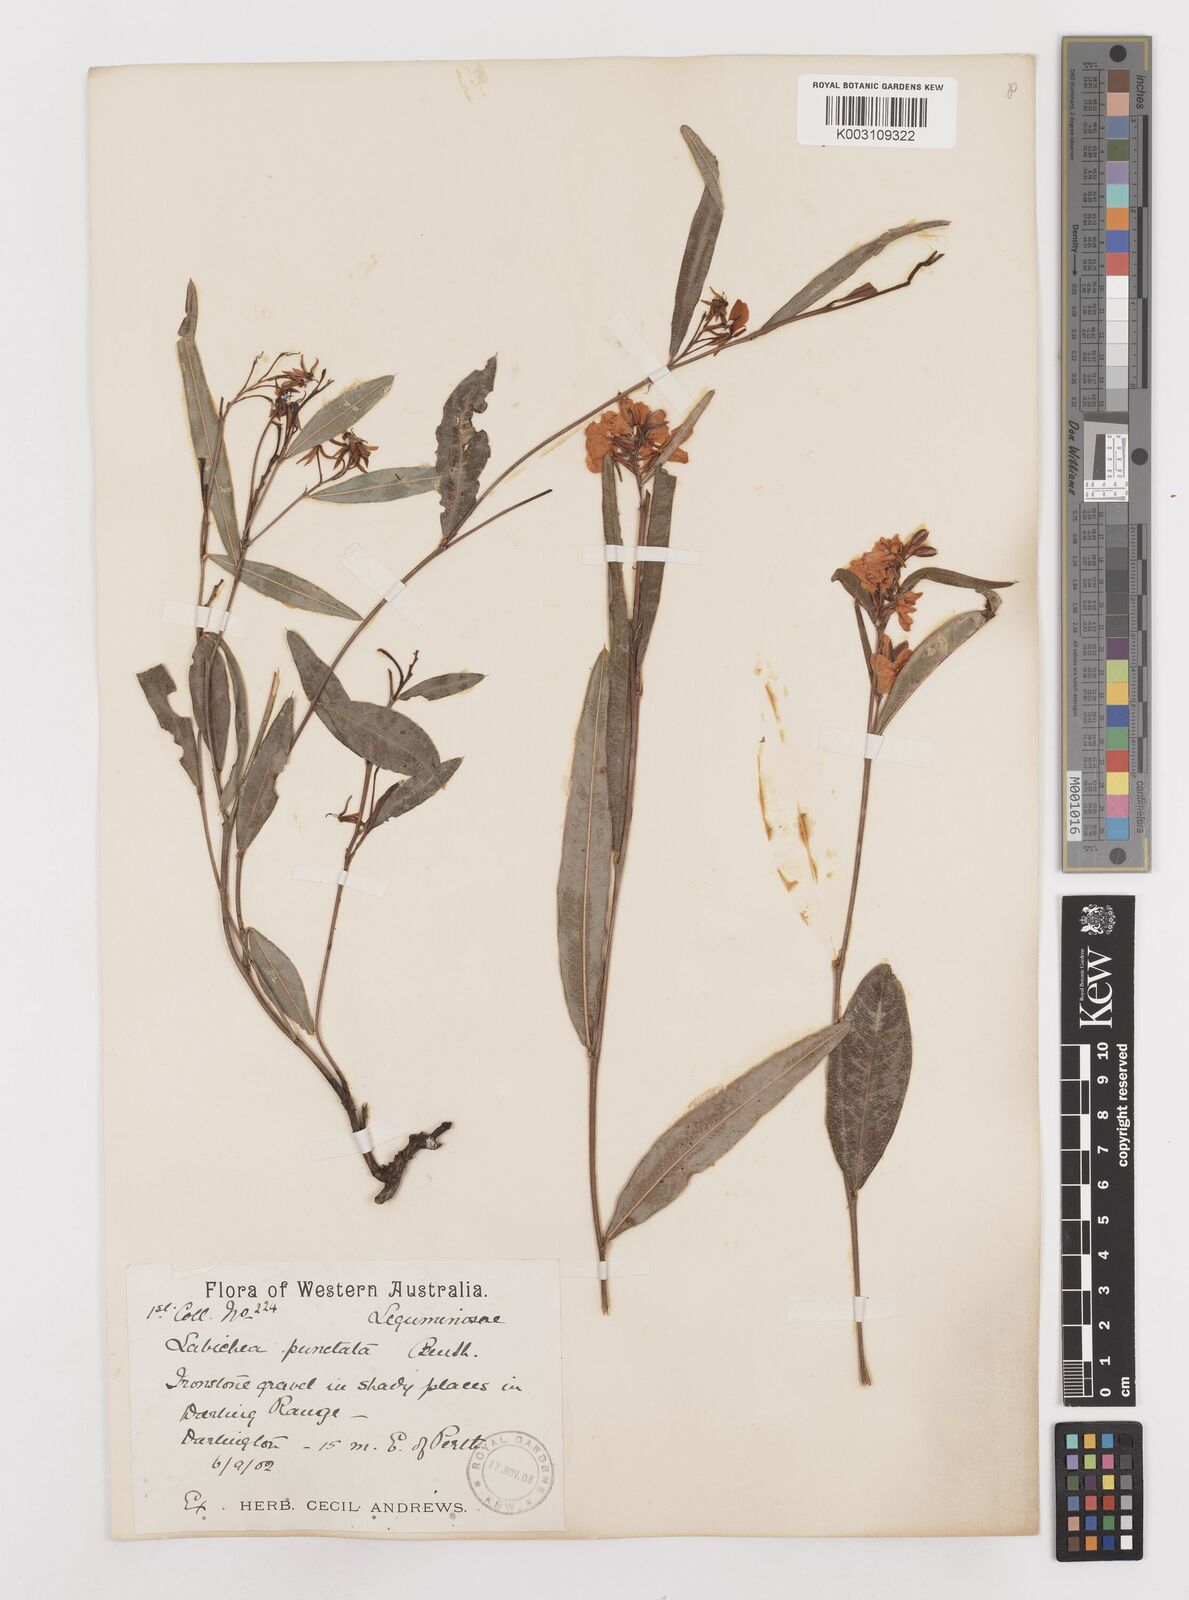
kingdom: Plantae
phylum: Tracheophyta
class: Magnoliopsida
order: Fabales
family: Fabaceae
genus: Labichea
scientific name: Labichea punctata
